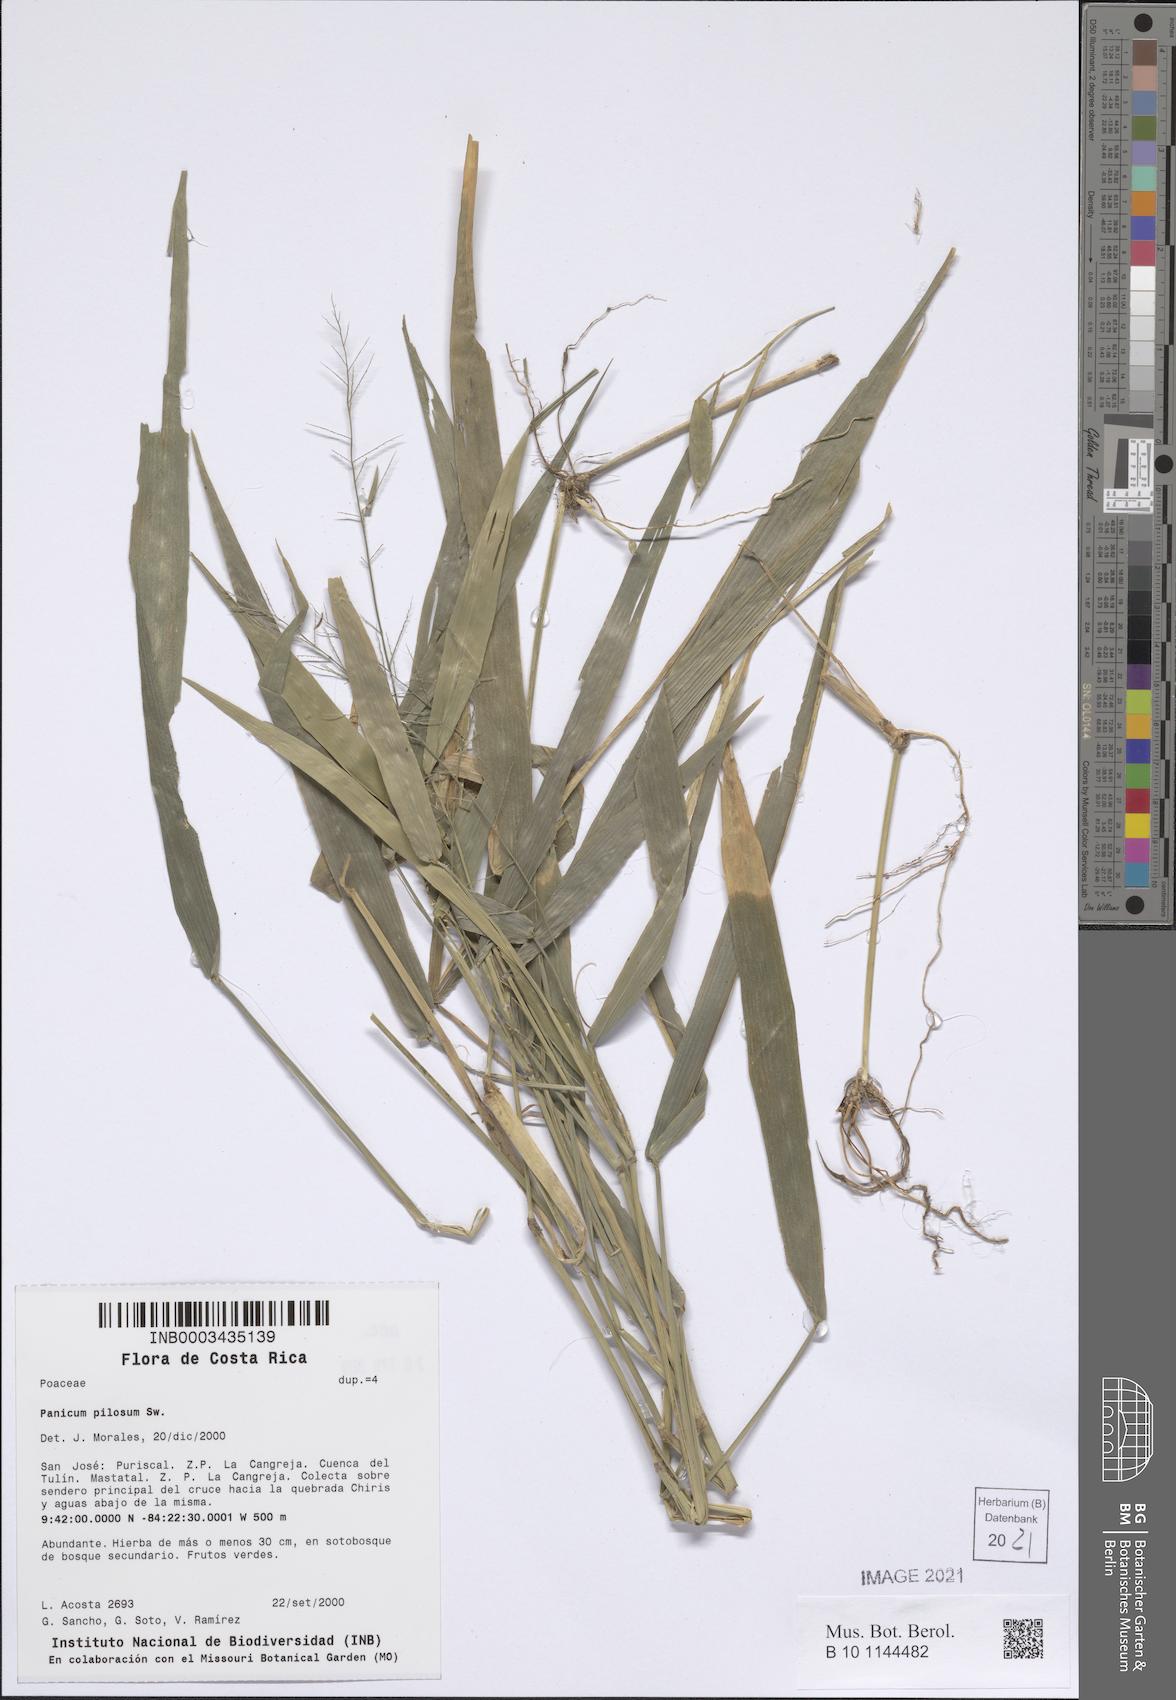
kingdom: Plantae
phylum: Tracheophyta
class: Liliopsida
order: Poales
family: Poaceae
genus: Rugoloa
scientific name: Rugoloa pilosa
